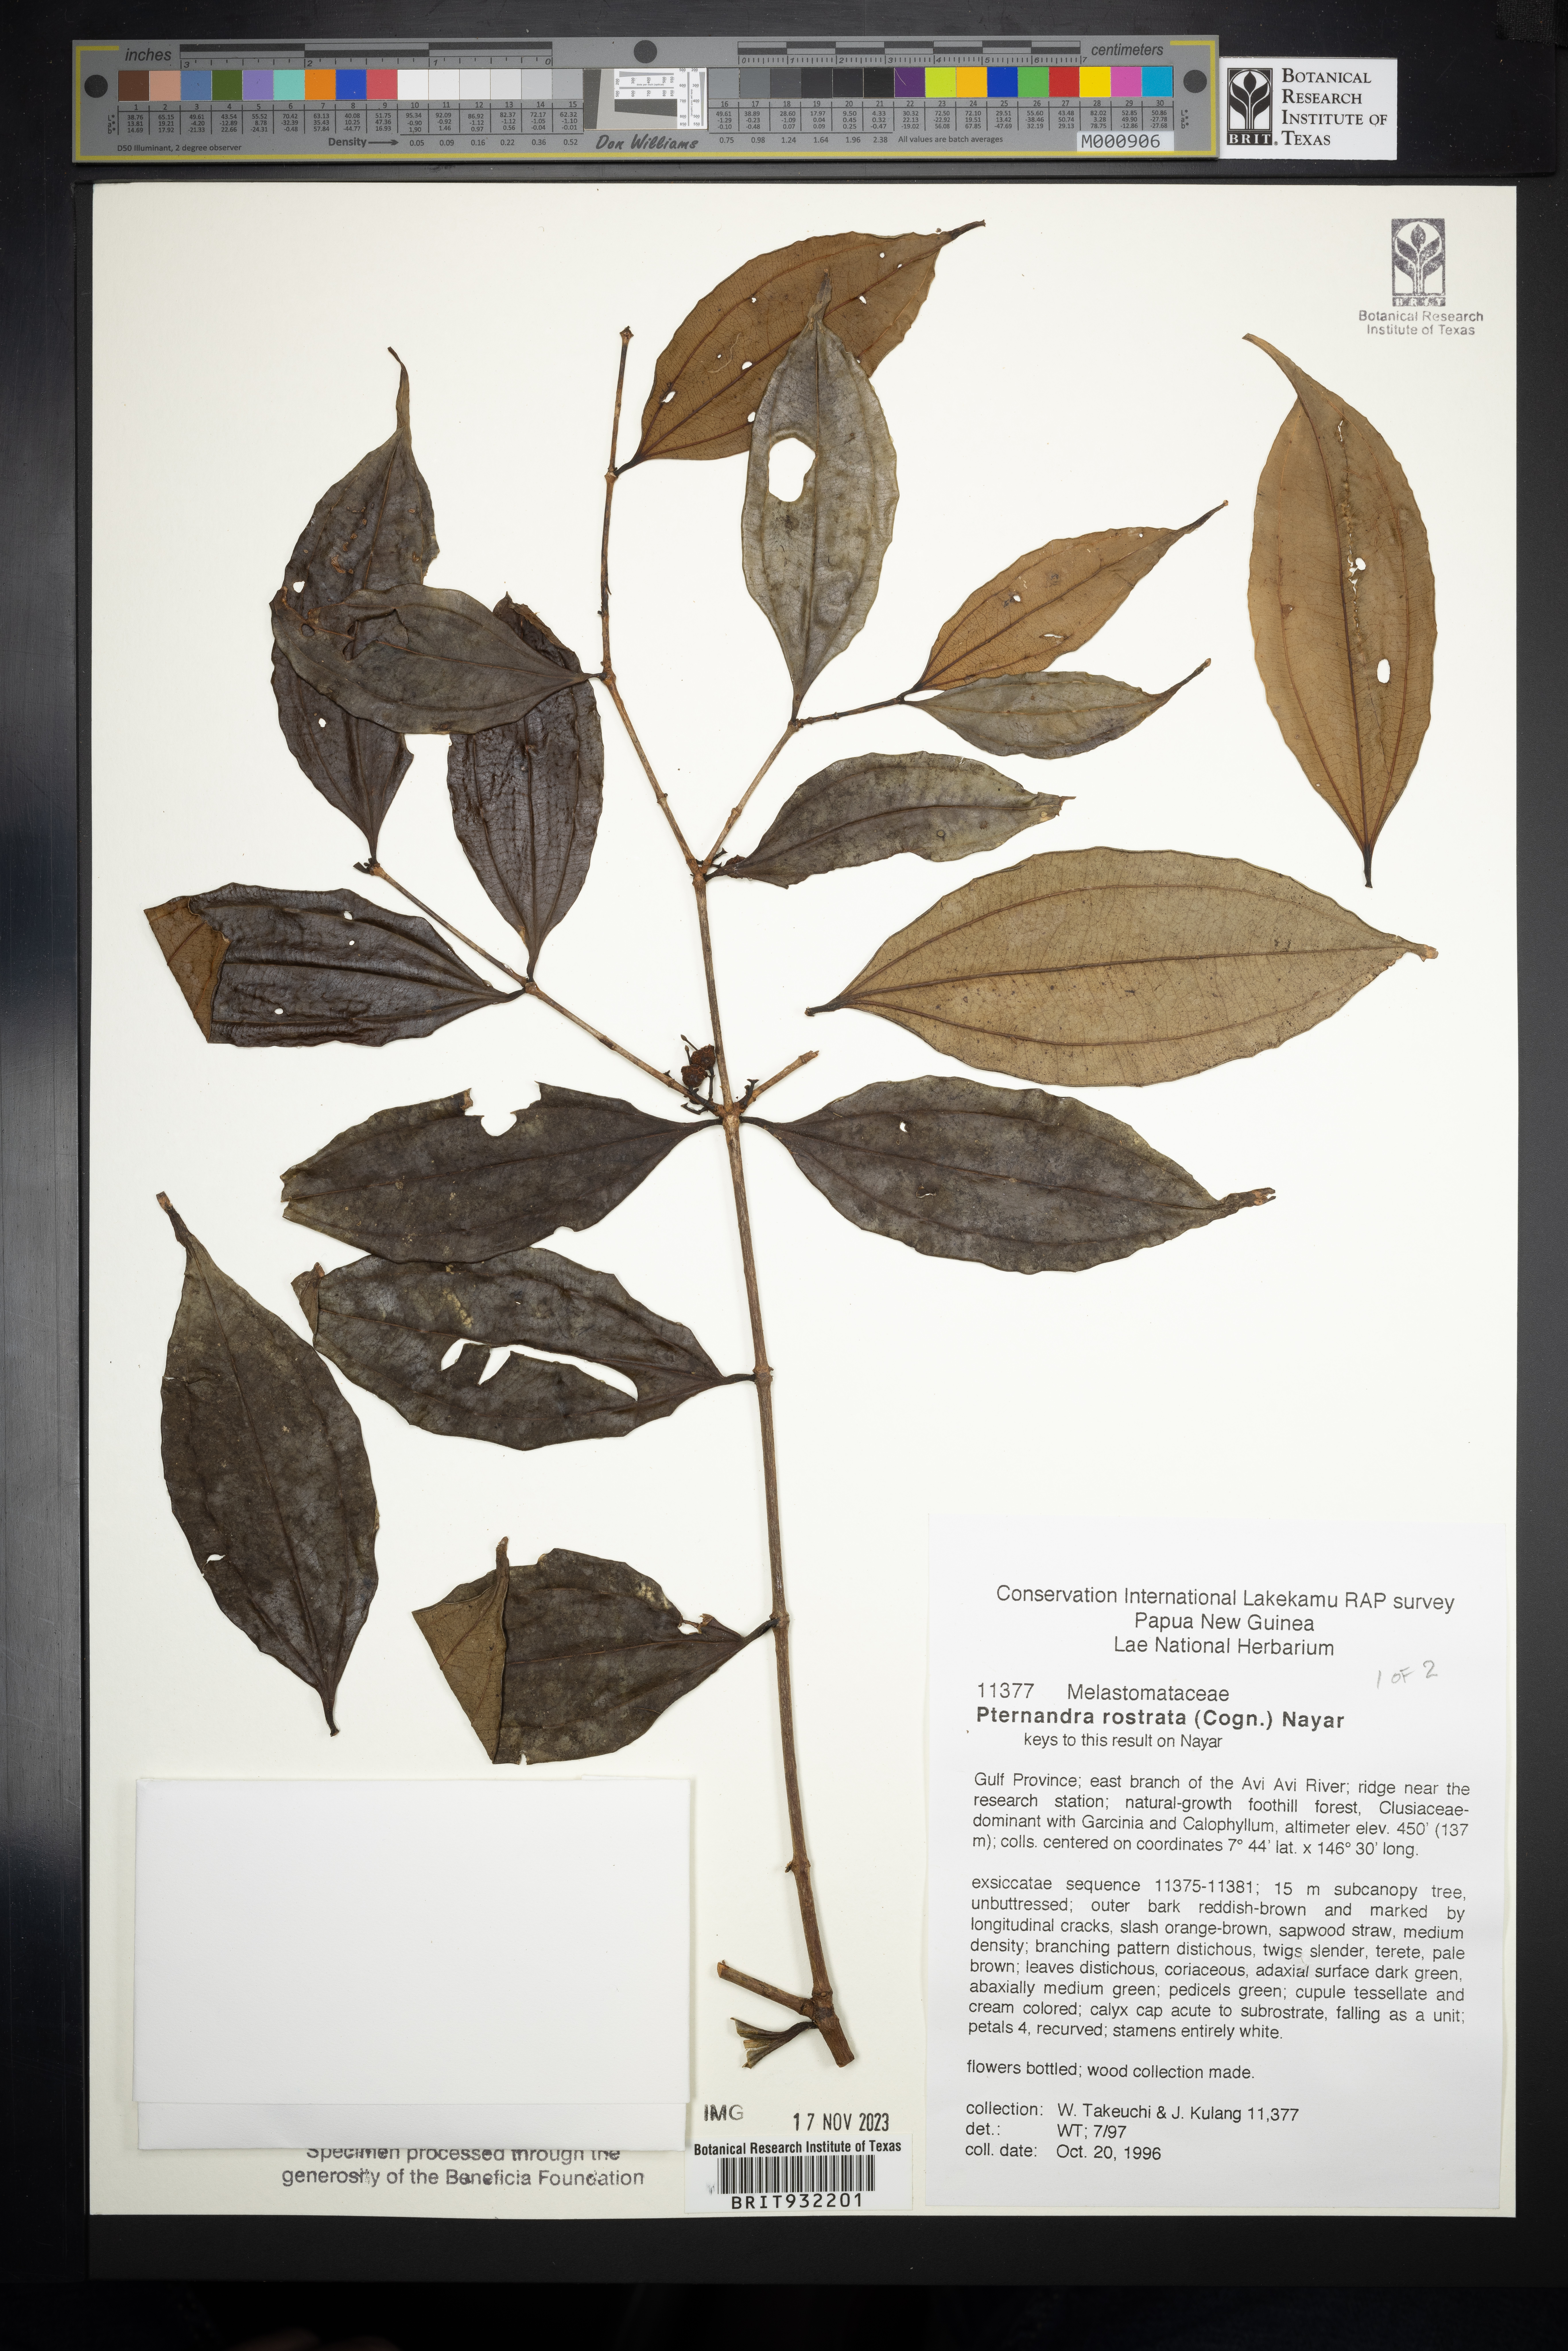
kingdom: Plantae
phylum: Tracheophyta
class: Magnoliopsida
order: Myrtales
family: Melastomataceae
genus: Pternandra
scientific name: Pternandra
